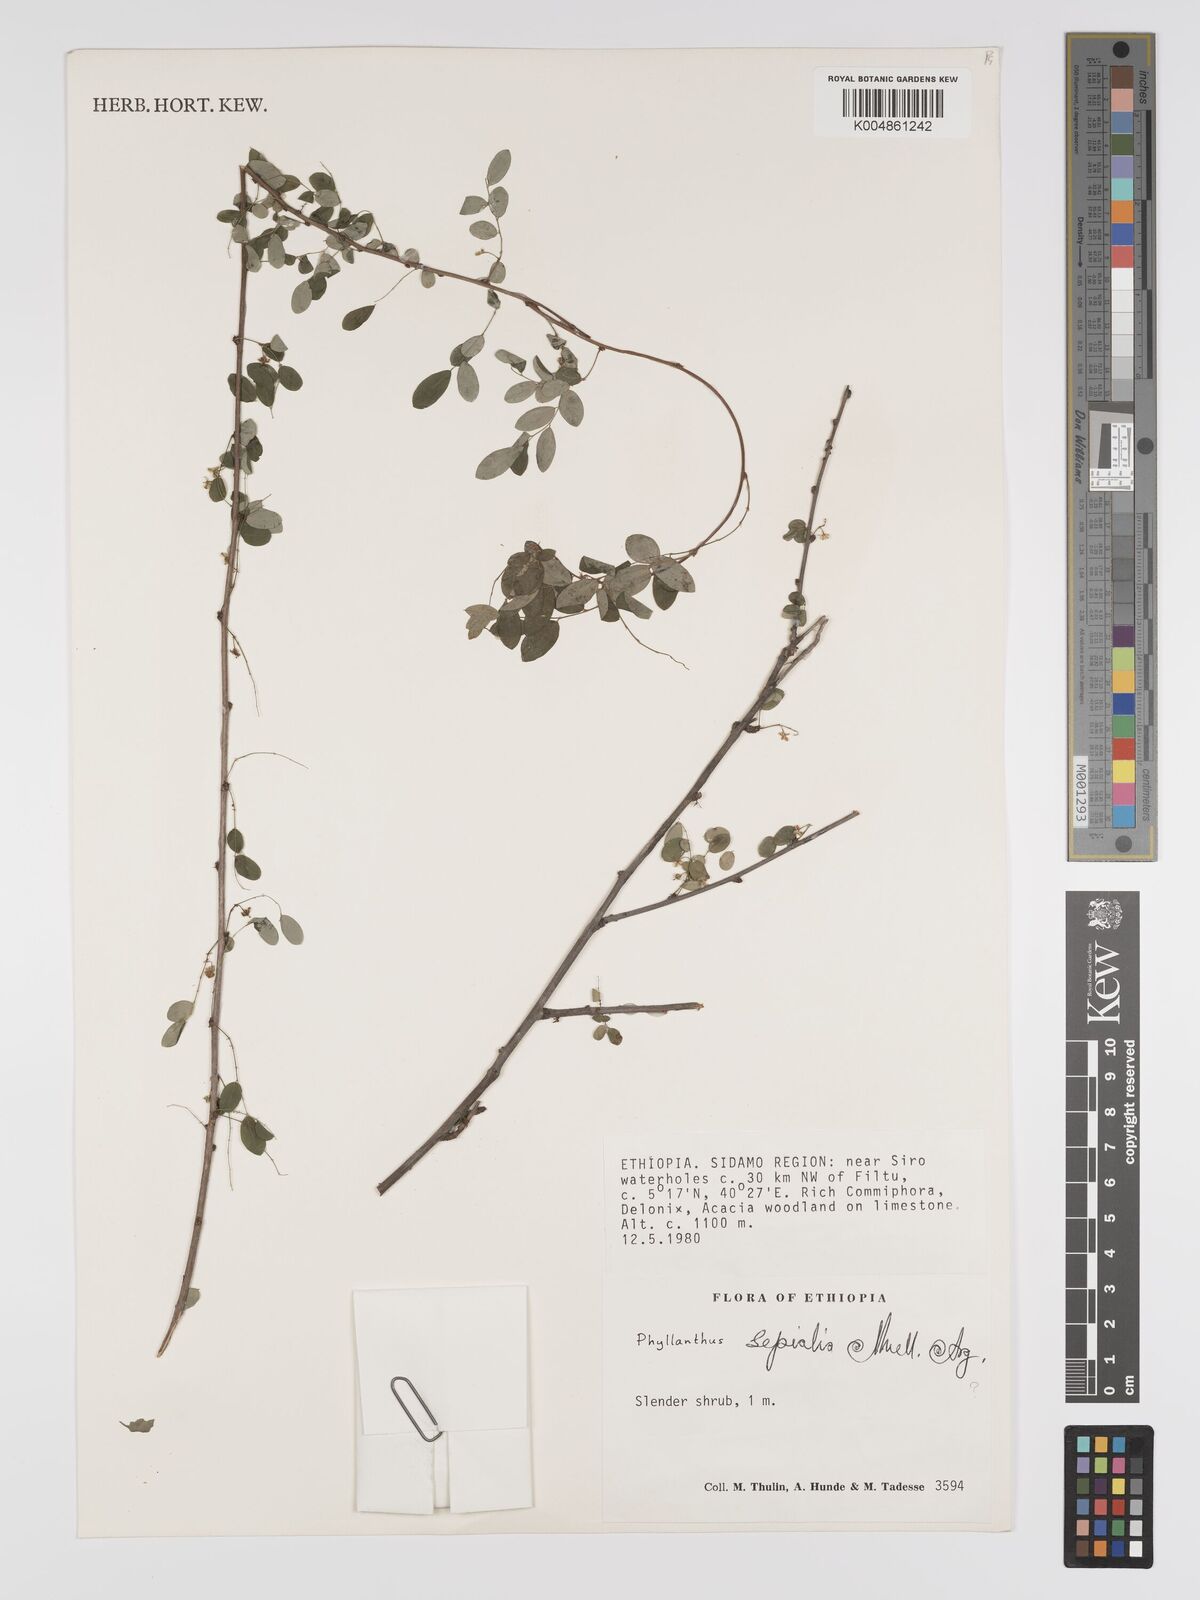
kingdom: Plantae
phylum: Tracheophyta
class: Magnoliopsida
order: Malpighiales
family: Phyllanthaceae
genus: Phyllanthus
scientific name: Phyllanthus sepialis
